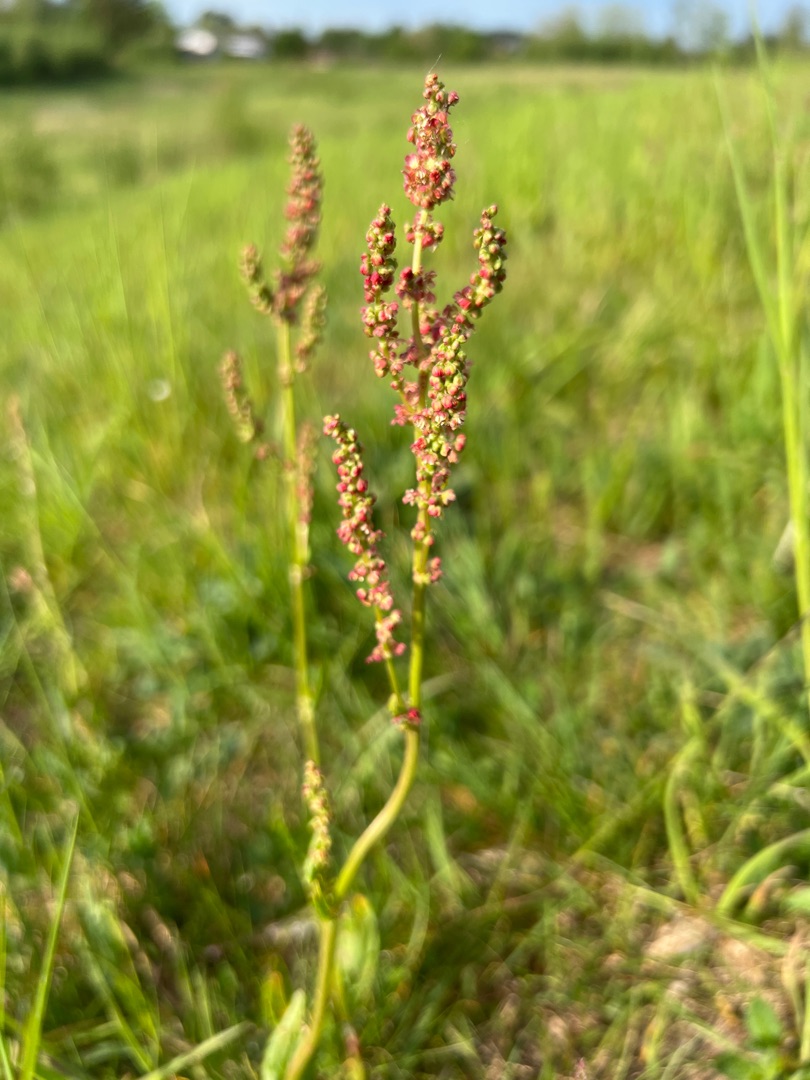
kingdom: Plantae
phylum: Tracheophyta
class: Magnoliopsida
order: Caryophyllales
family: Polygonaceae
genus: Rumex
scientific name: Rumex acetosa
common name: Almindelig syre
